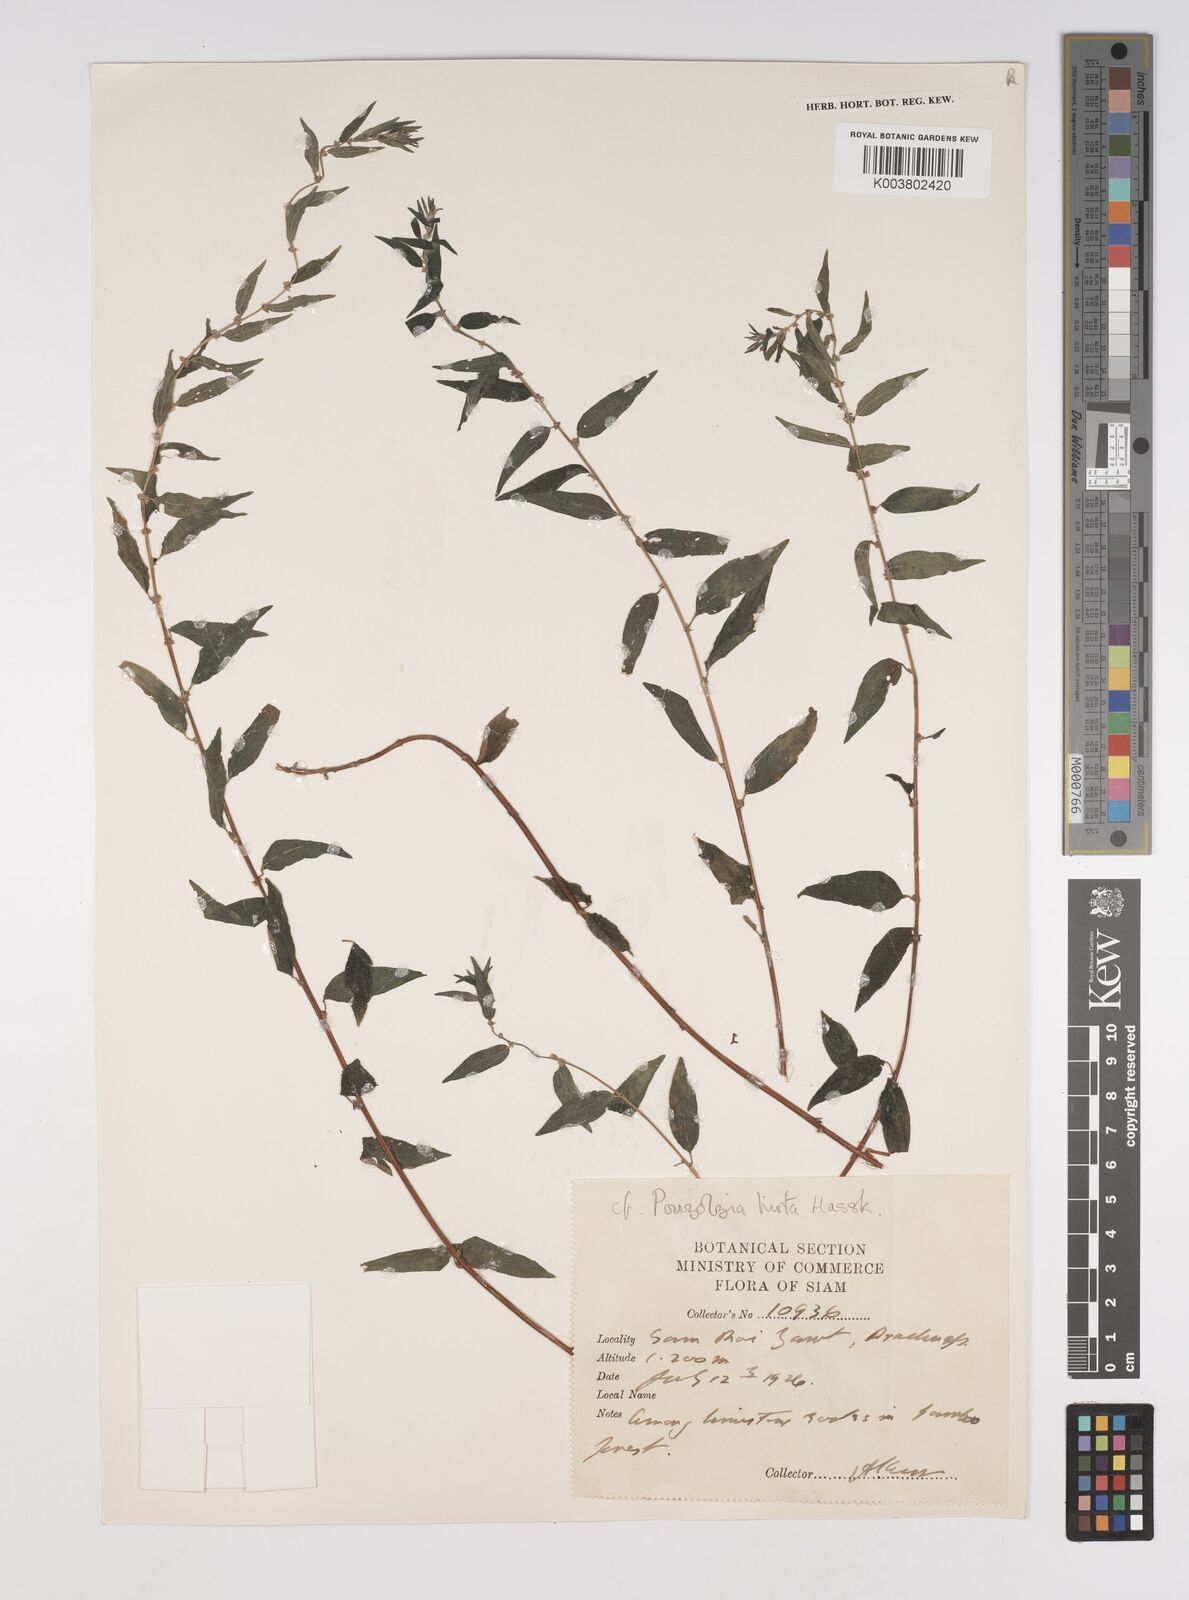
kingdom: Plantae
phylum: Tracheophyta
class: Magnoliopsida
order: Rosales
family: Urticaceae
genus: Pouzolzia
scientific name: Pouzolzia zeylanica
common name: Graceful pouzolzsbush
